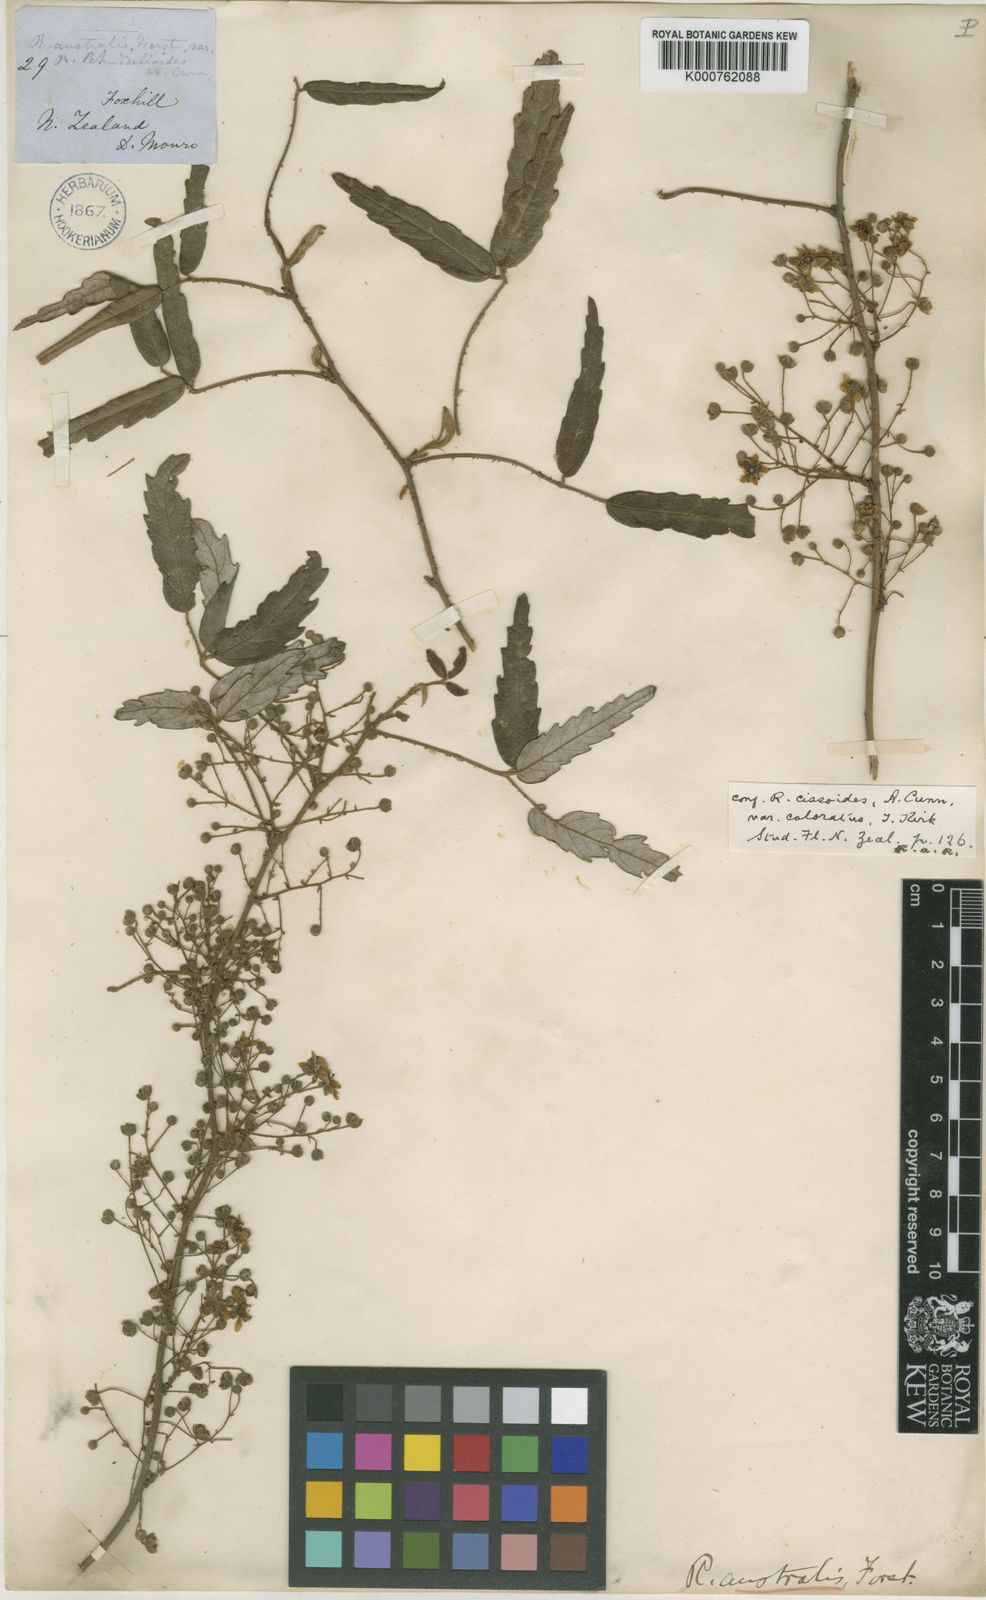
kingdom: Plantae
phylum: Tracheophyta
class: Magnoliopsida
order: Rosales
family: Rosaceae
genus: Rubus
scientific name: Rubus schmidelioides
